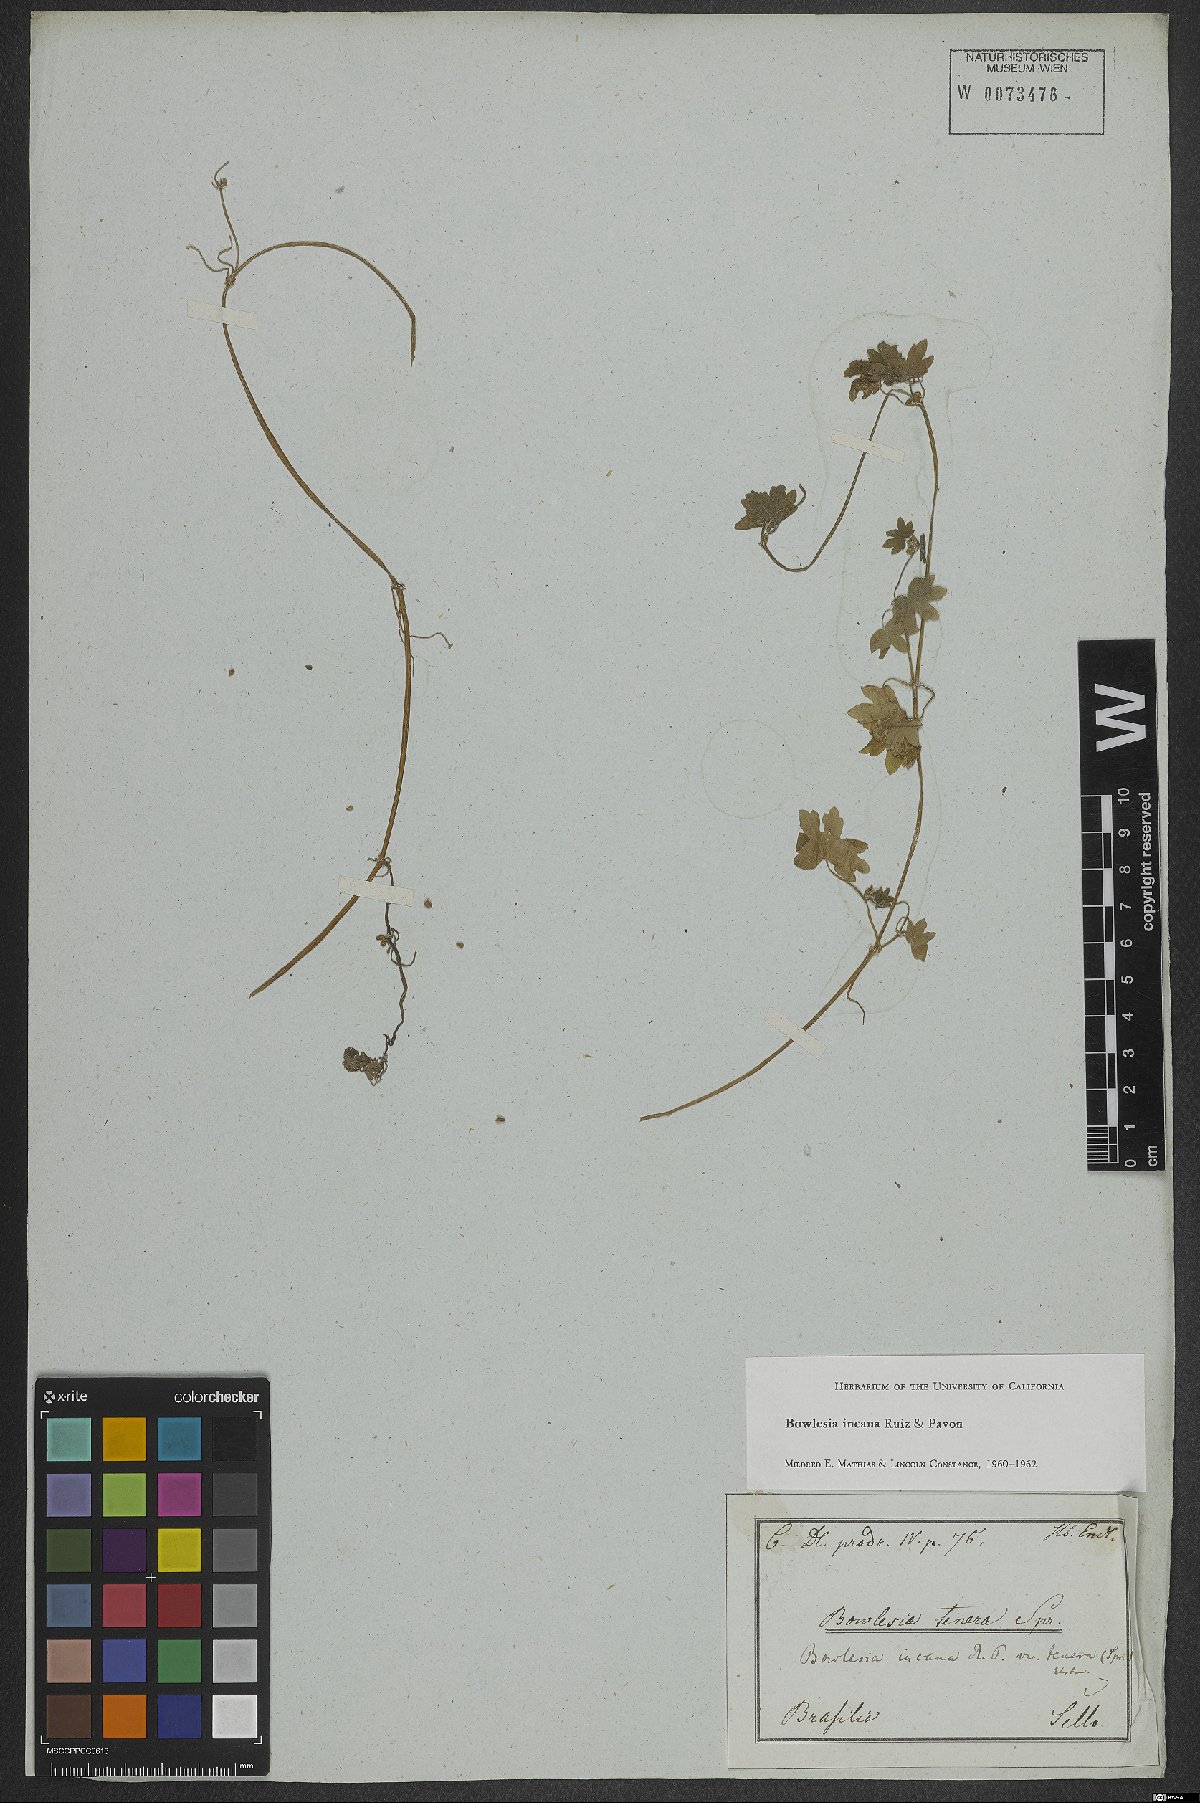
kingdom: Plantae
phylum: Tracheophyta
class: Magnoliopsida
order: Apiales
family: Apiaceae
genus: Bowlesia
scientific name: Bowlesia incana
